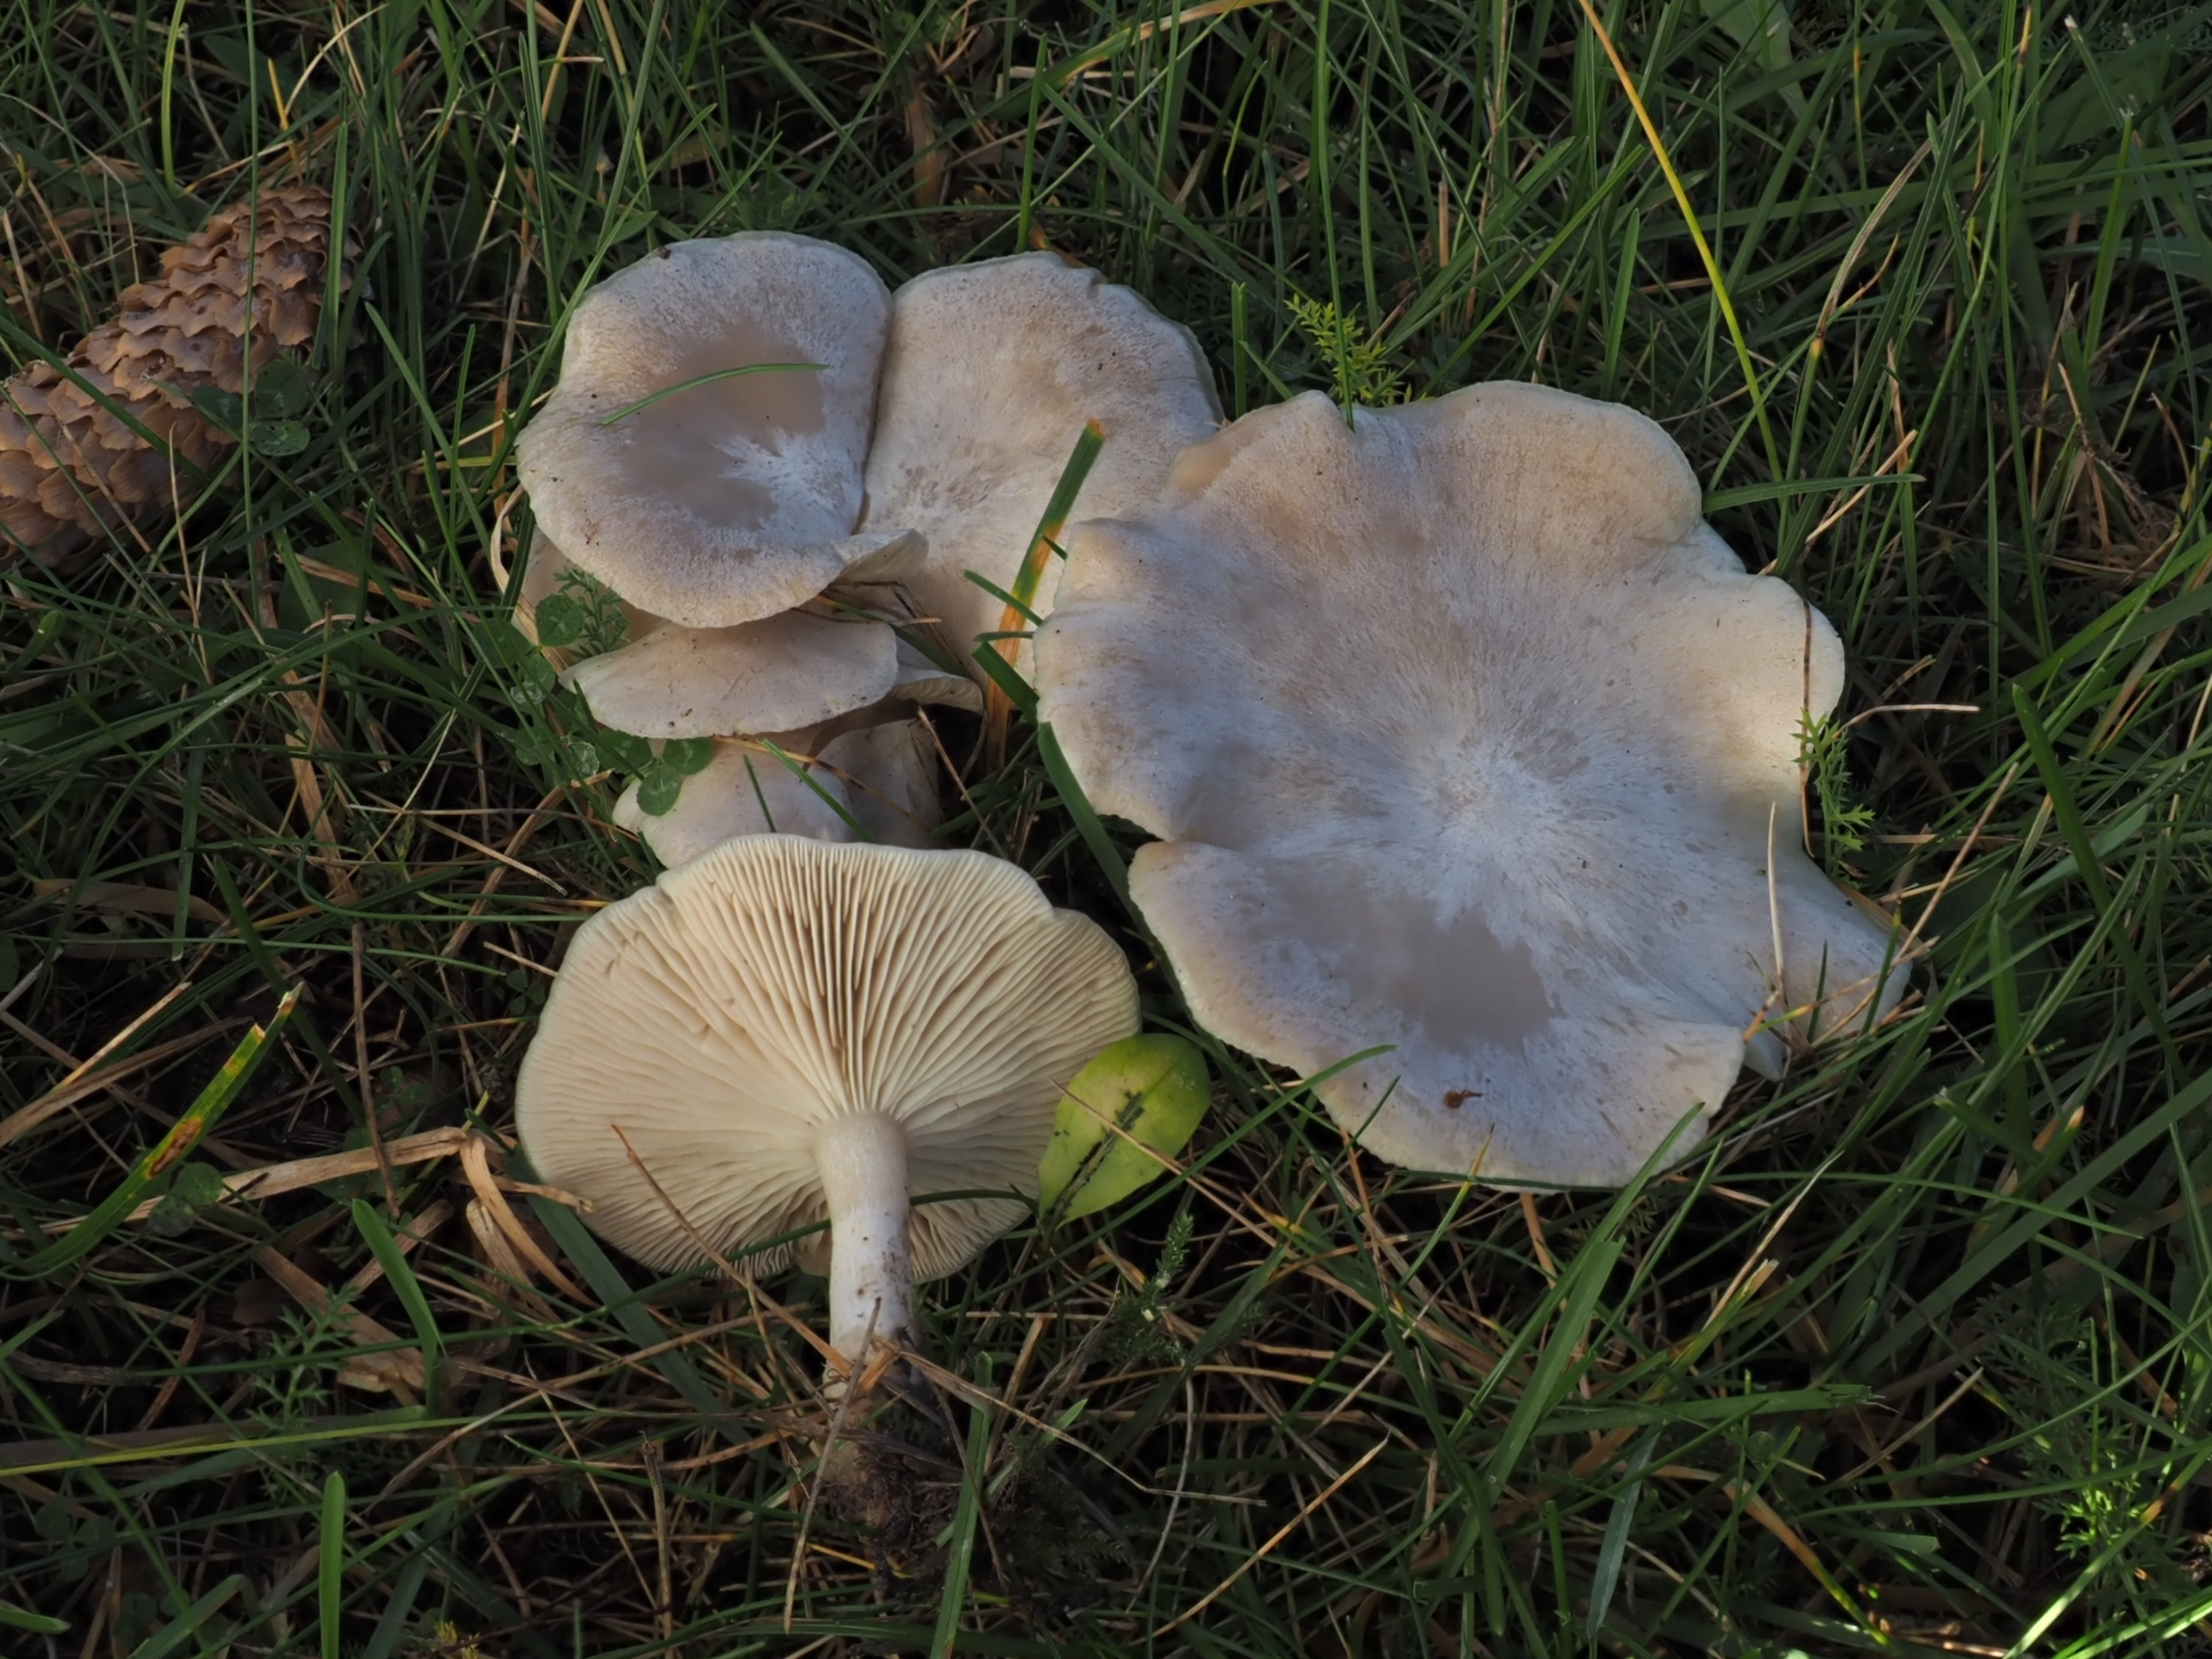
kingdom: Fungi
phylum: Basidiomycota
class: Agaricomycetes
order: Agaricales
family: Entolomataceae
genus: Clitopilus
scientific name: Clitopilus prunulus
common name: The miller
